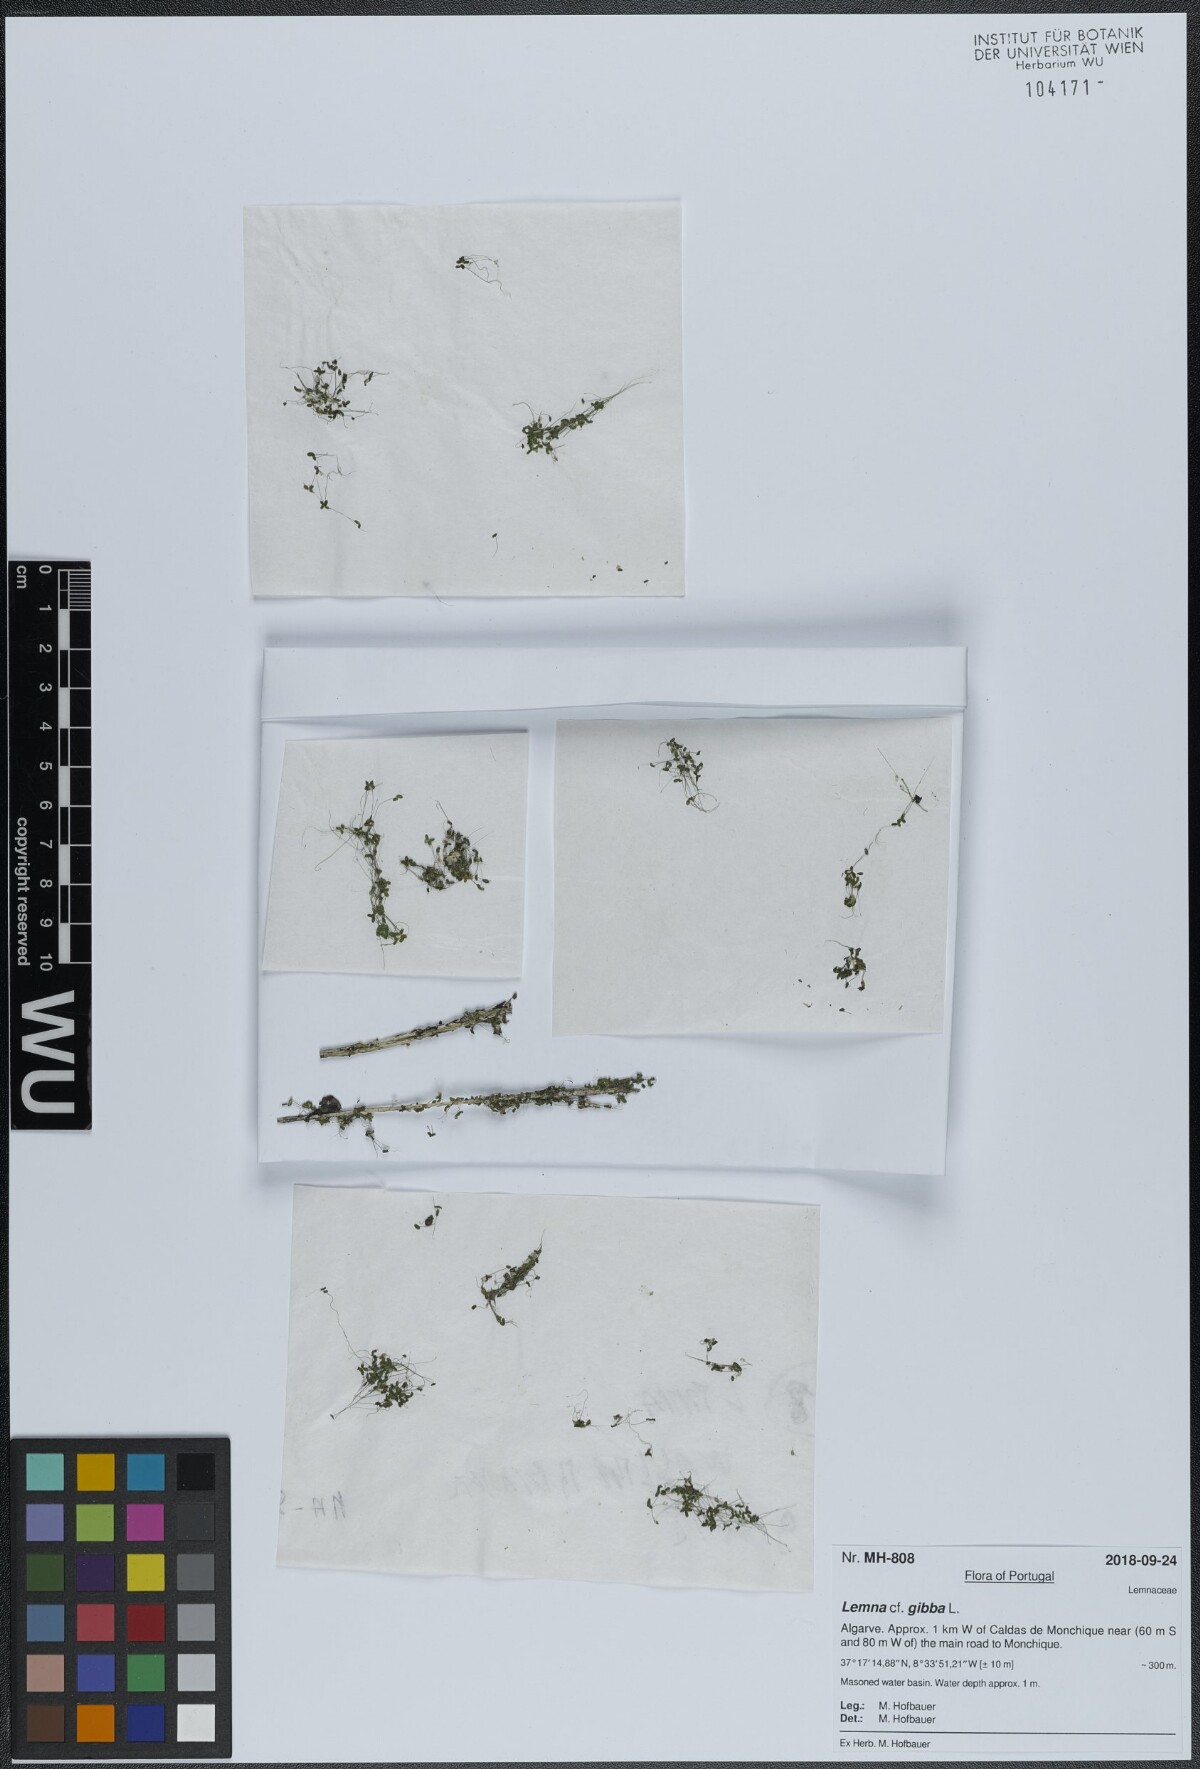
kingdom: Plantae
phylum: Tracheophyta
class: Liliopsida
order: Alismatales
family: Araceae
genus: Lemna
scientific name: Lemna gibba
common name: Fat duckweed
